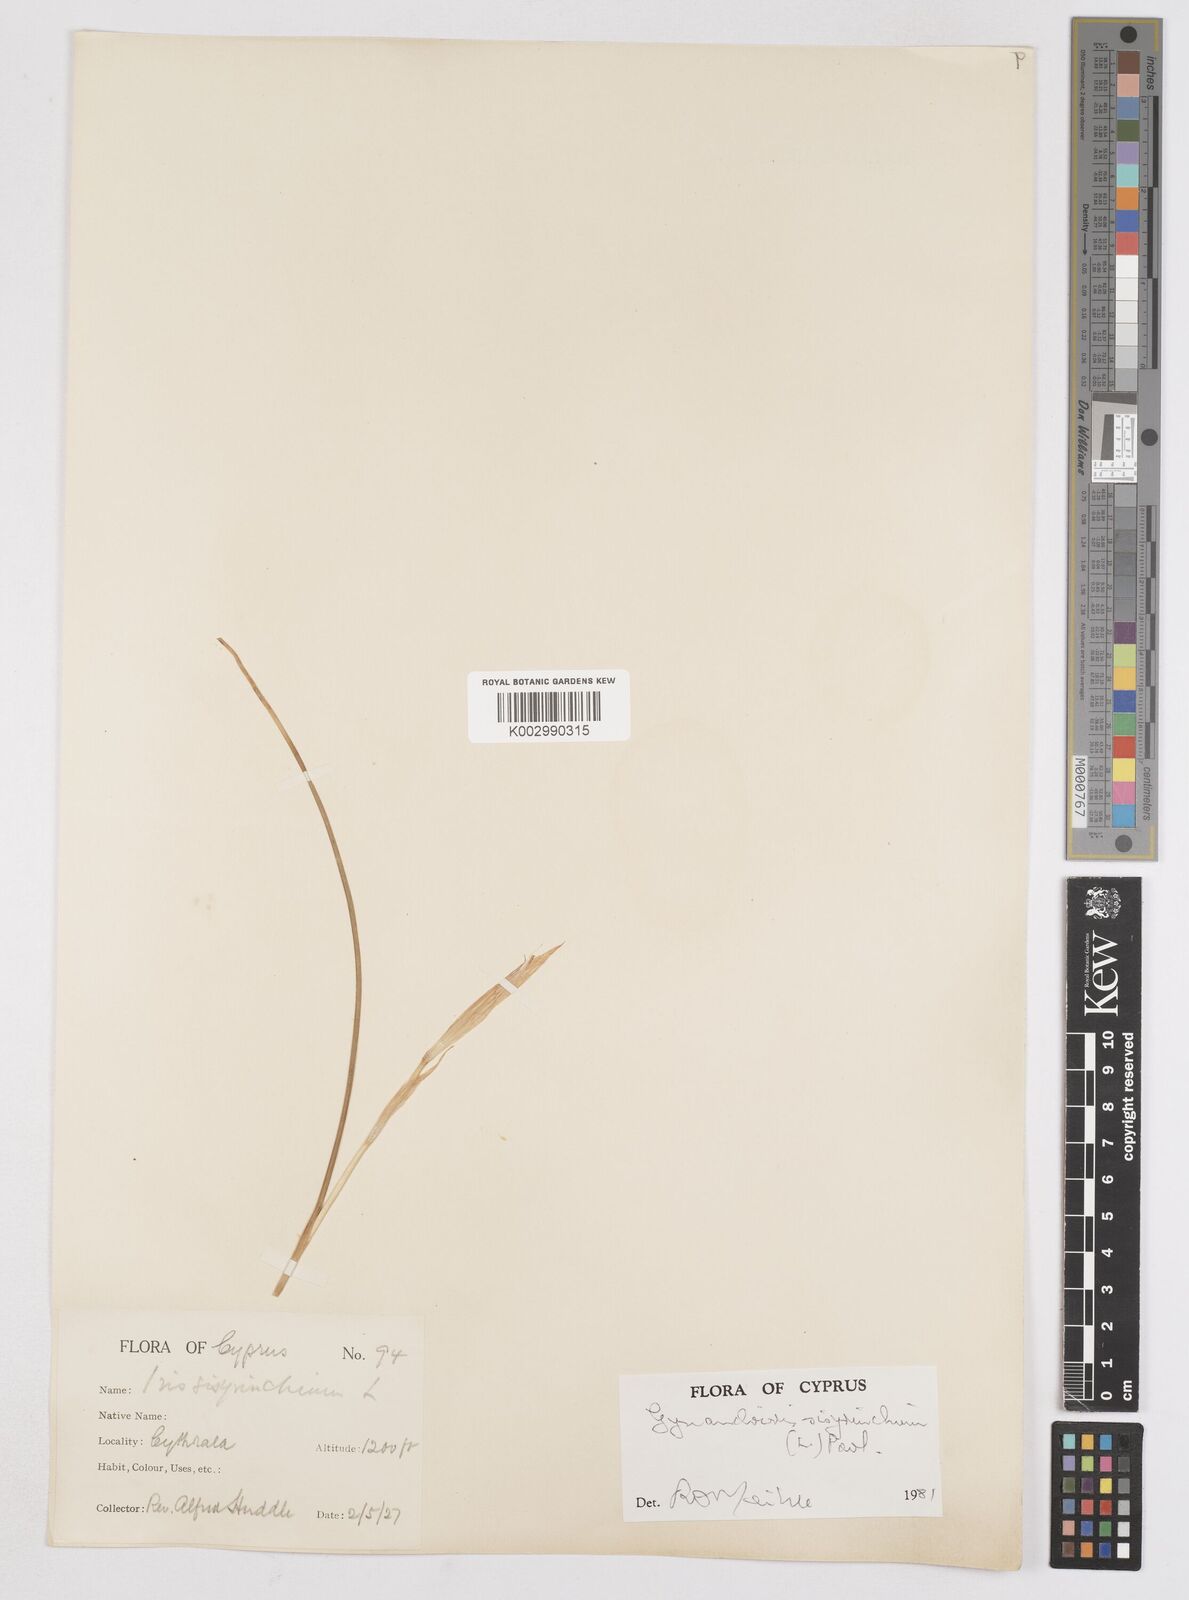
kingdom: Plantae
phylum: Tracheophyta
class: Liliopsida
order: Asparagales
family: Iridaceae
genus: Moraea
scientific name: Moraea sisyrinchium
